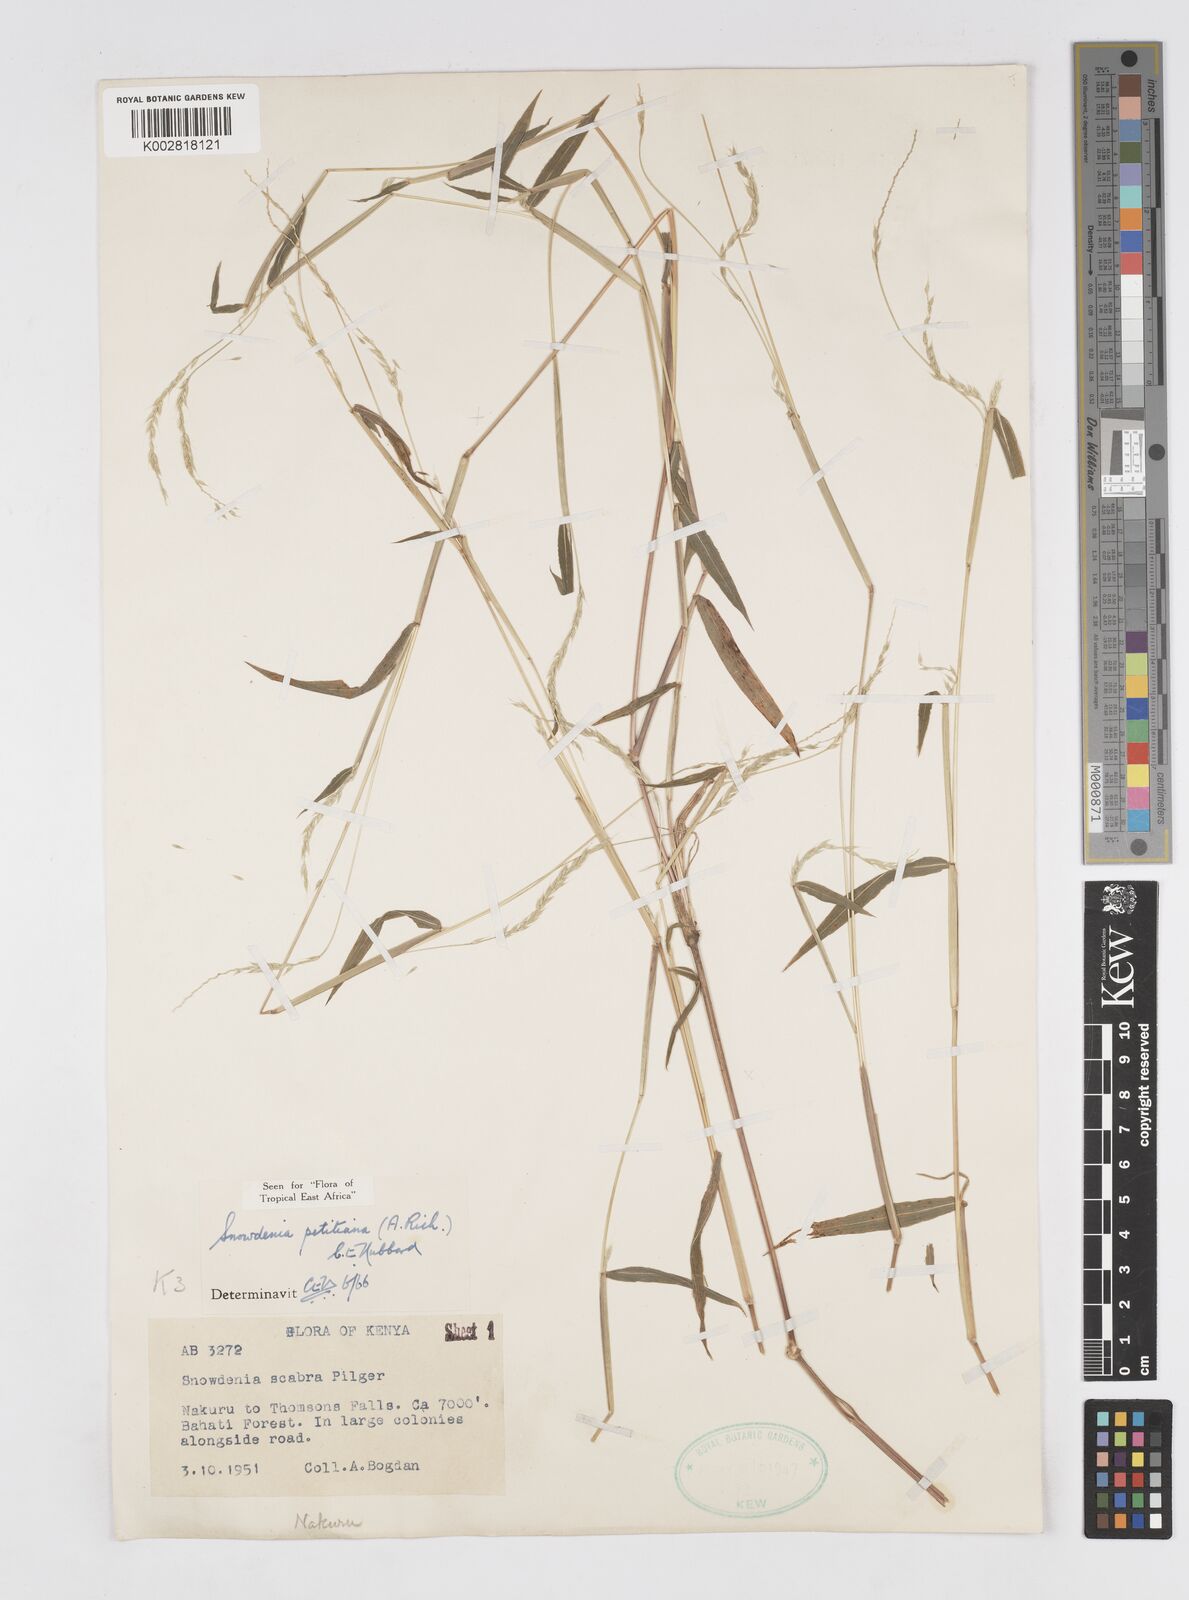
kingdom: Plantae
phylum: Tracheophyta
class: Liliopsida
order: Poales
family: Poaceae
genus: Snowdenia
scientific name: Snowdenia petitiana
